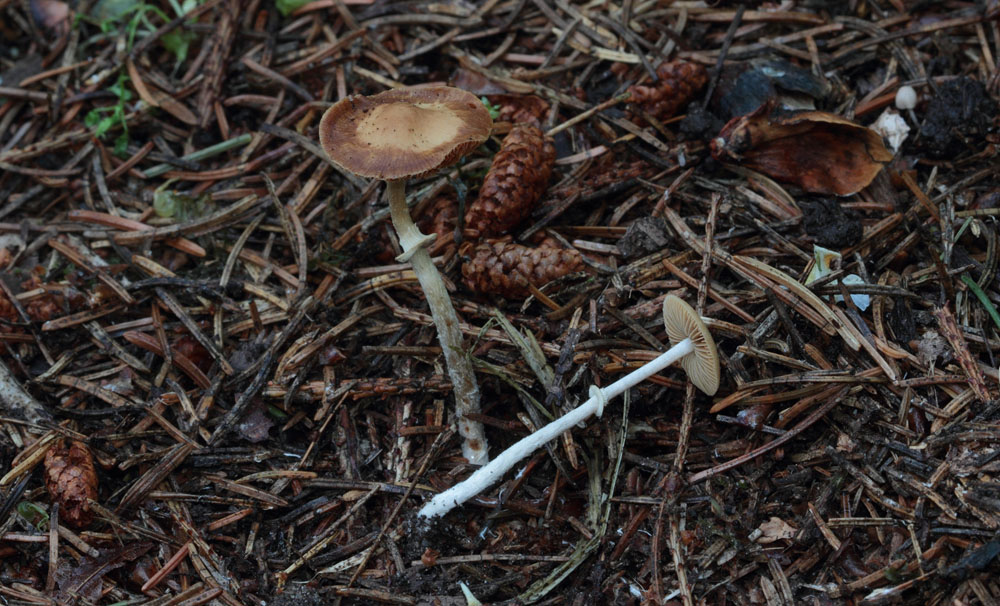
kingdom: Fungi
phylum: Basidiomycota
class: Agaricomycetes
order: Agaricales
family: Bolbitiaceae
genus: Conocybe
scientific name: Conocybe arrhenii
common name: ring-dansehat
